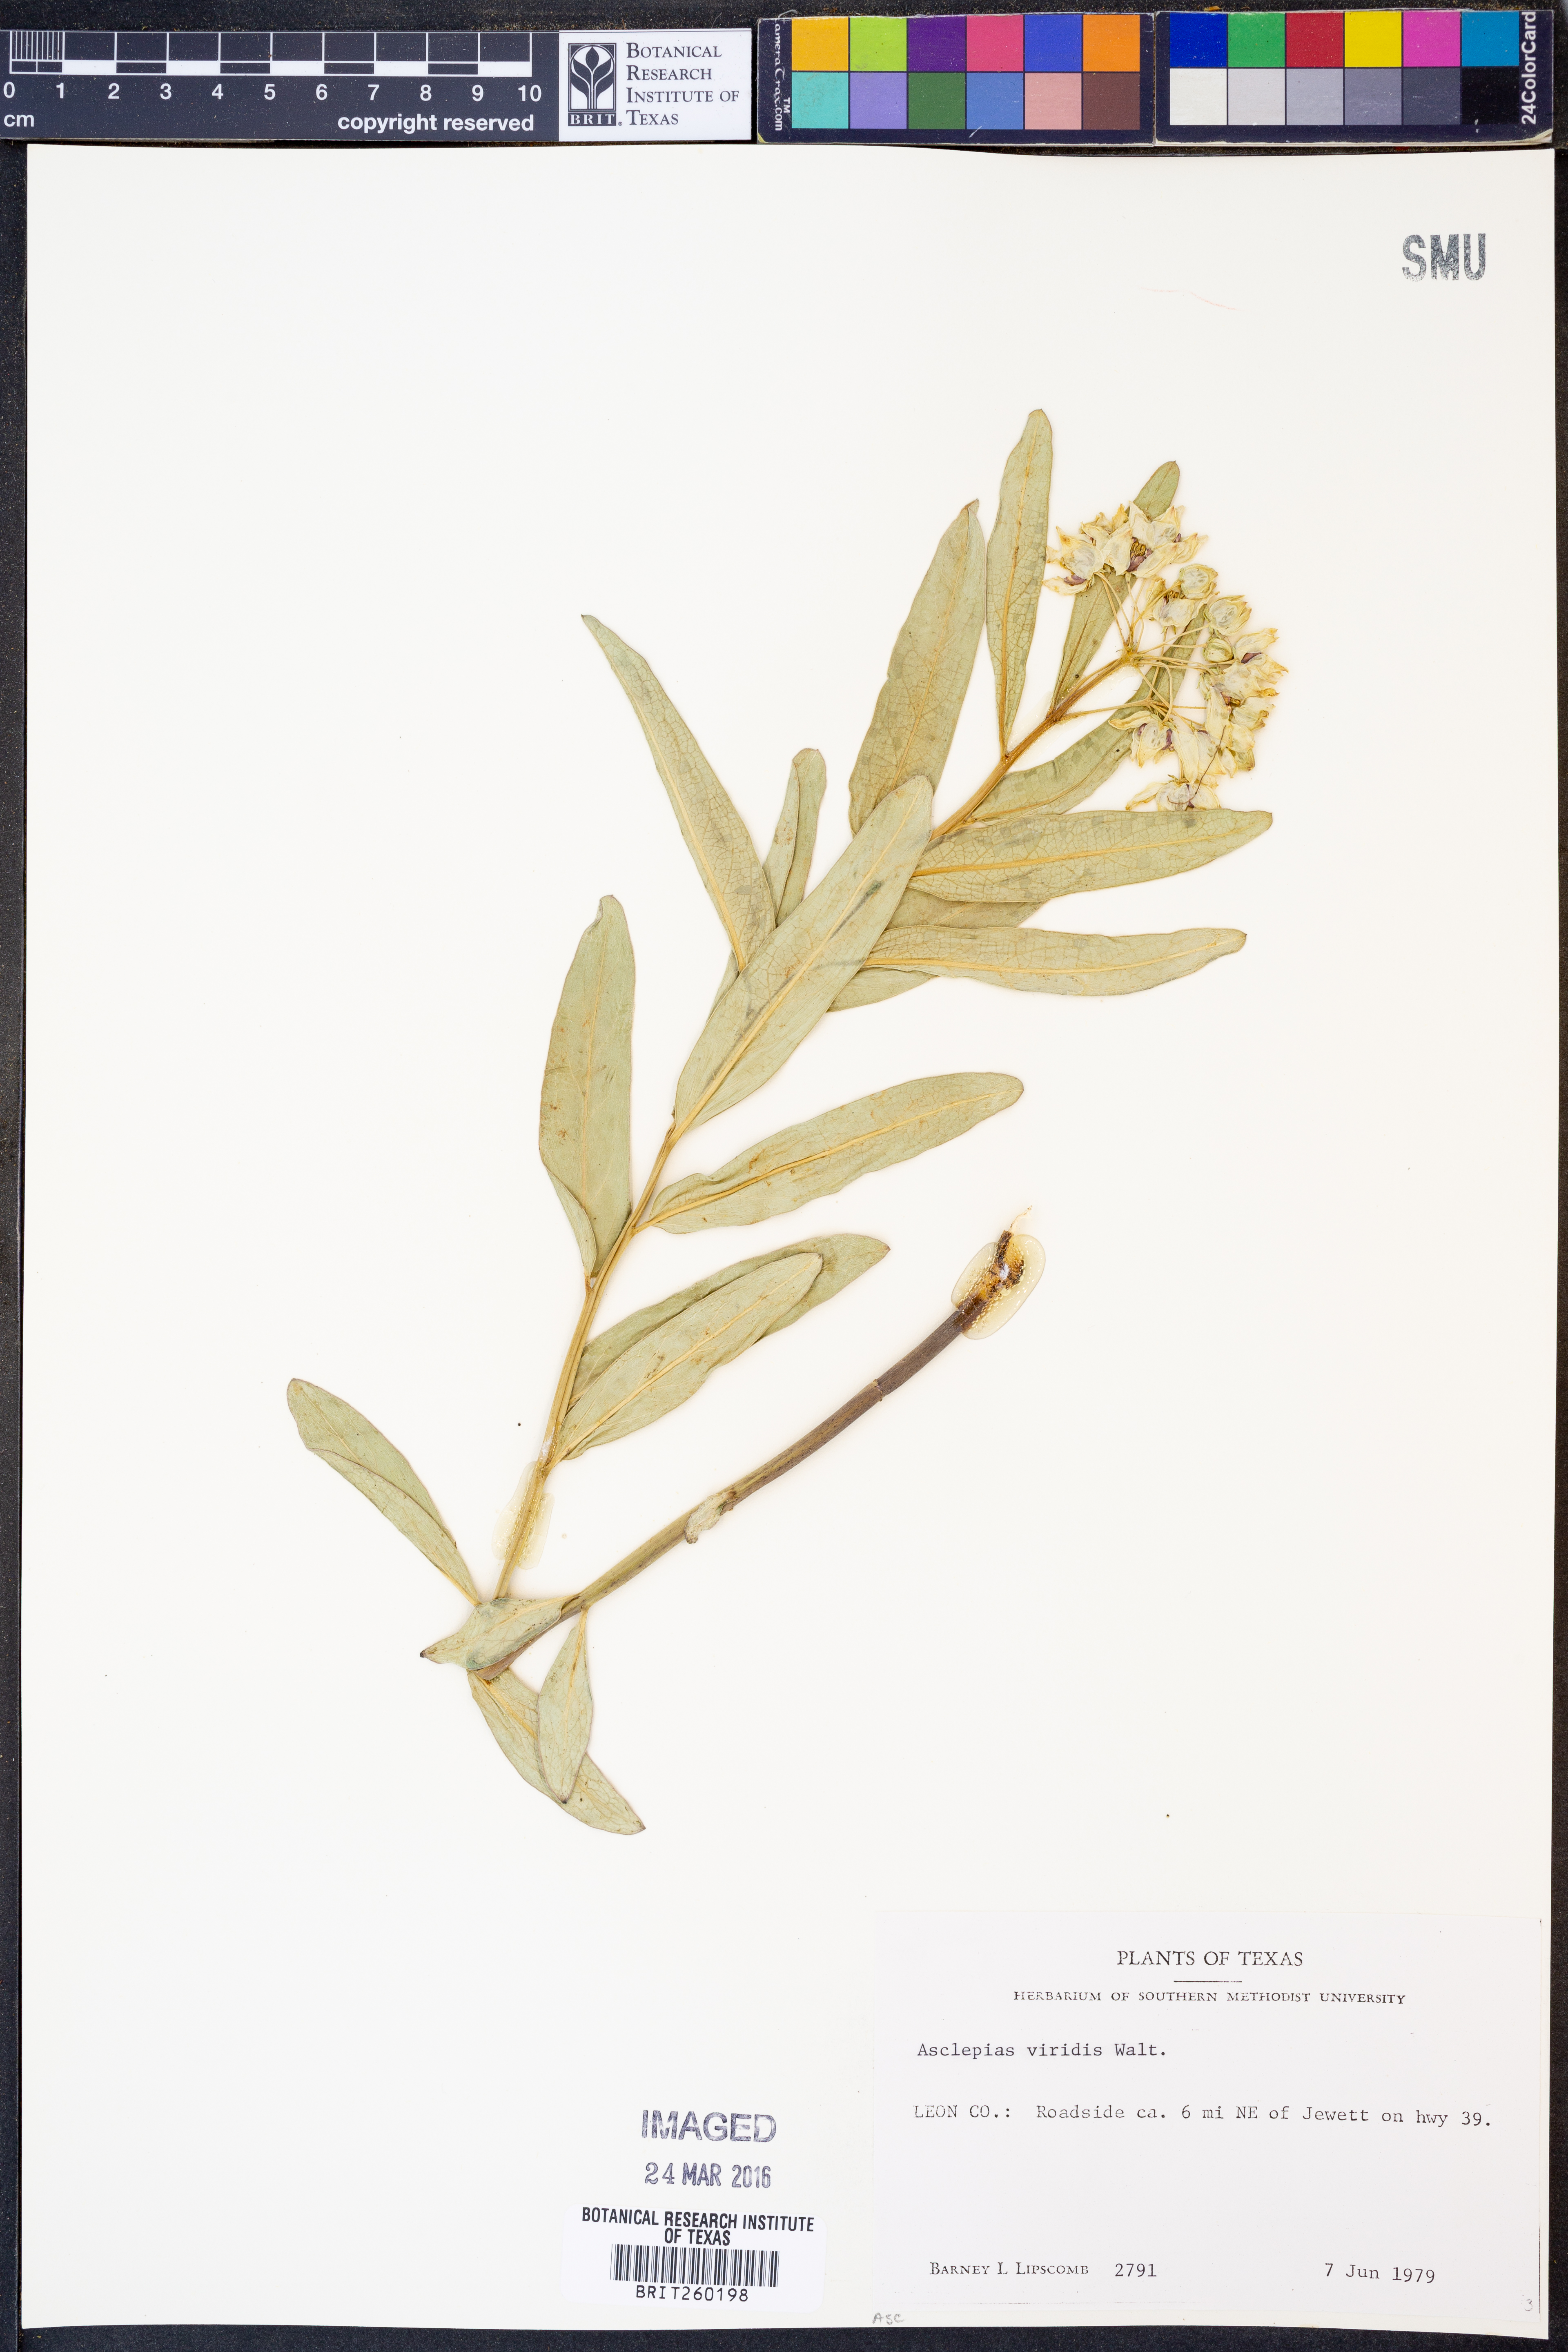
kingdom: Plantae
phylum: Tracheophyta
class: Magnoliopsida
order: Gentianales
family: Apocynaceae
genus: Asclepias
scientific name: Asclepias viridis
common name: Antelope-horns
